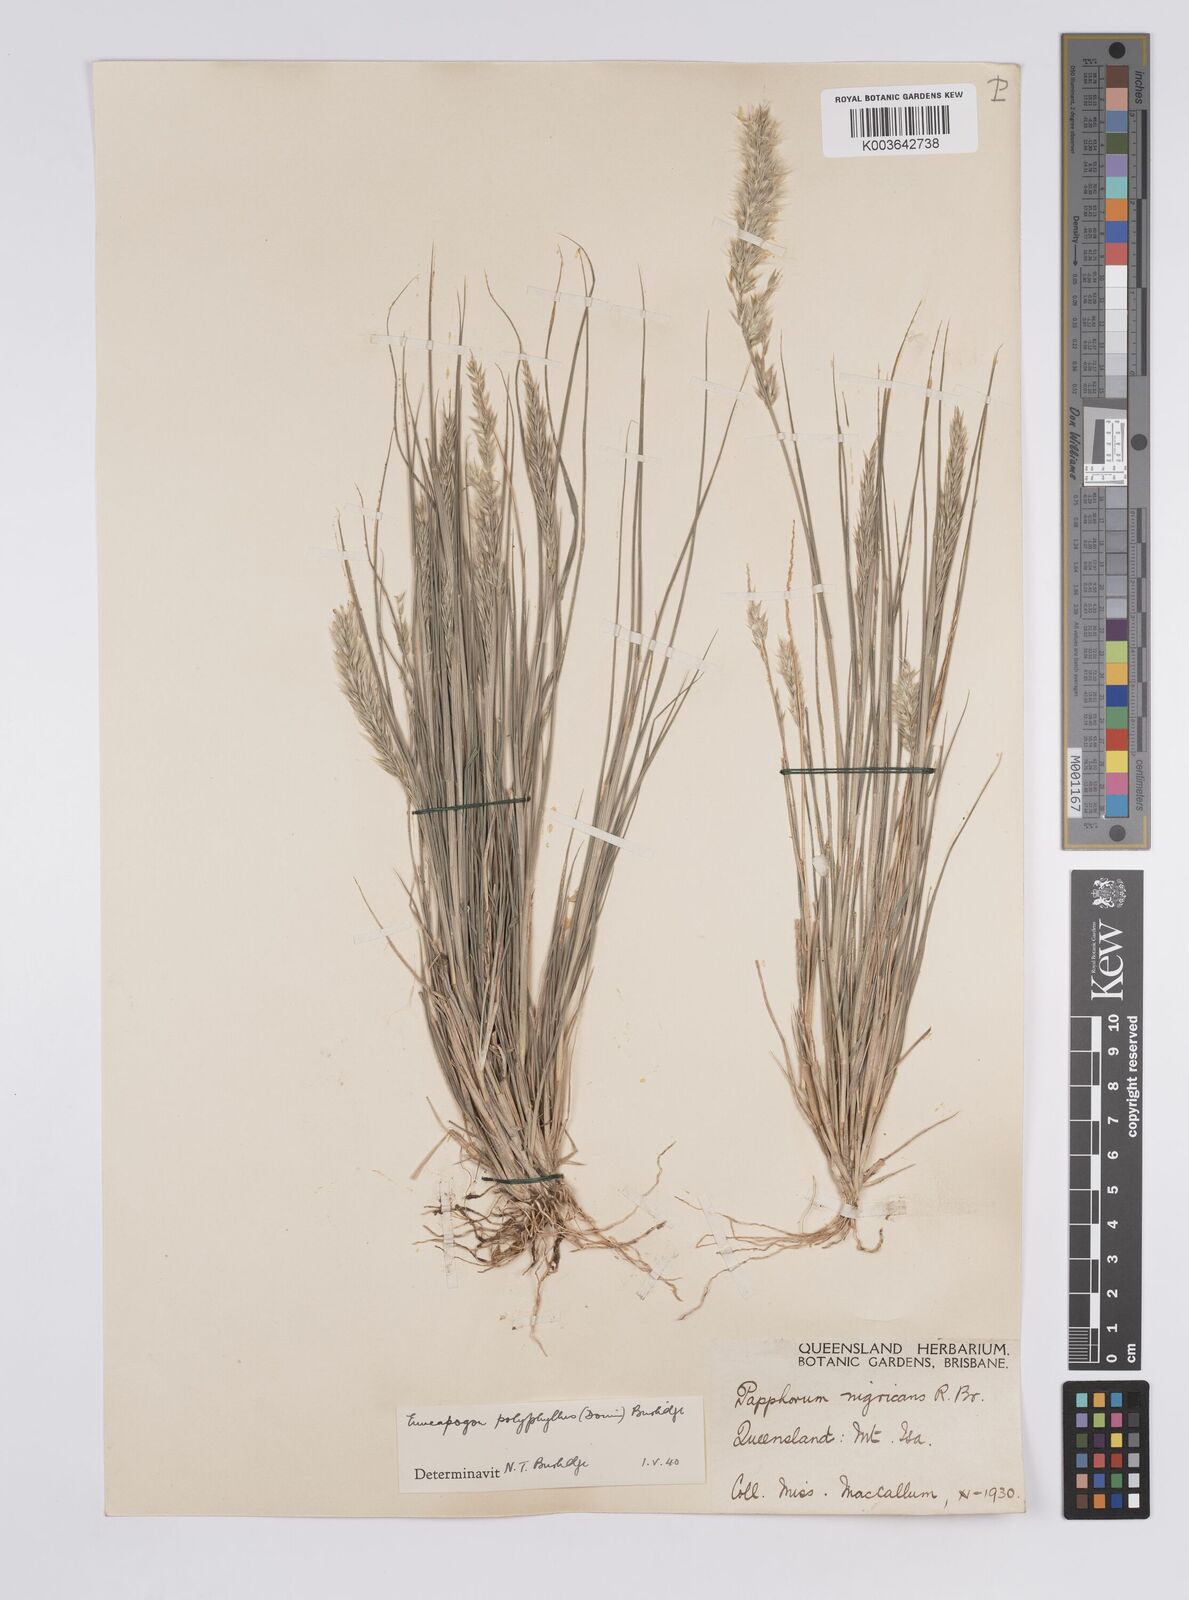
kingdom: Plantae
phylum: Tracheophyta
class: Liliopsida
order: Poales
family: Poaceae
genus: Enneapogon
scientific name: Enneapogon polyphyllus
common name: Leafy nineawn
